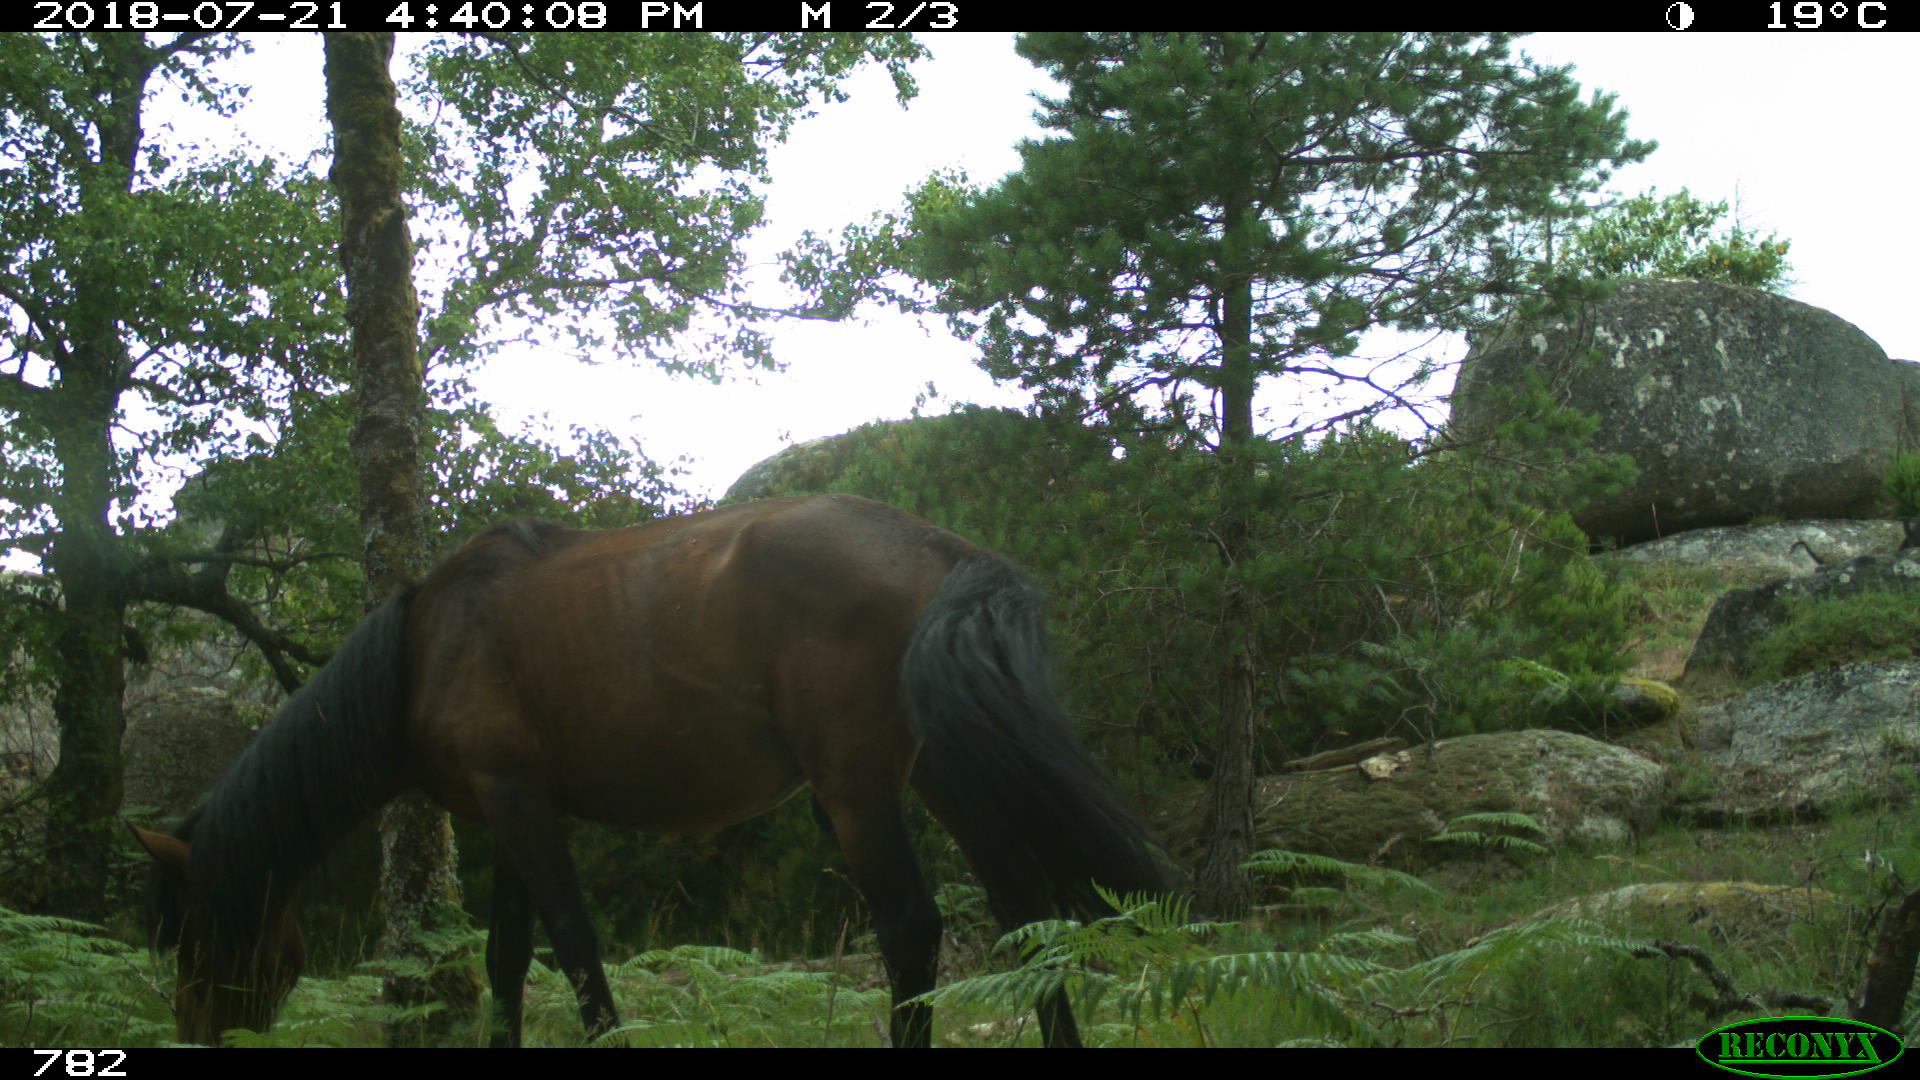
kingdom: Animalia
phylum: Chordata
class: Mammalia
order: Perissodactyla
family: Equidae
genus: Equus
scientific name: Equus caballus
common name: Horse
